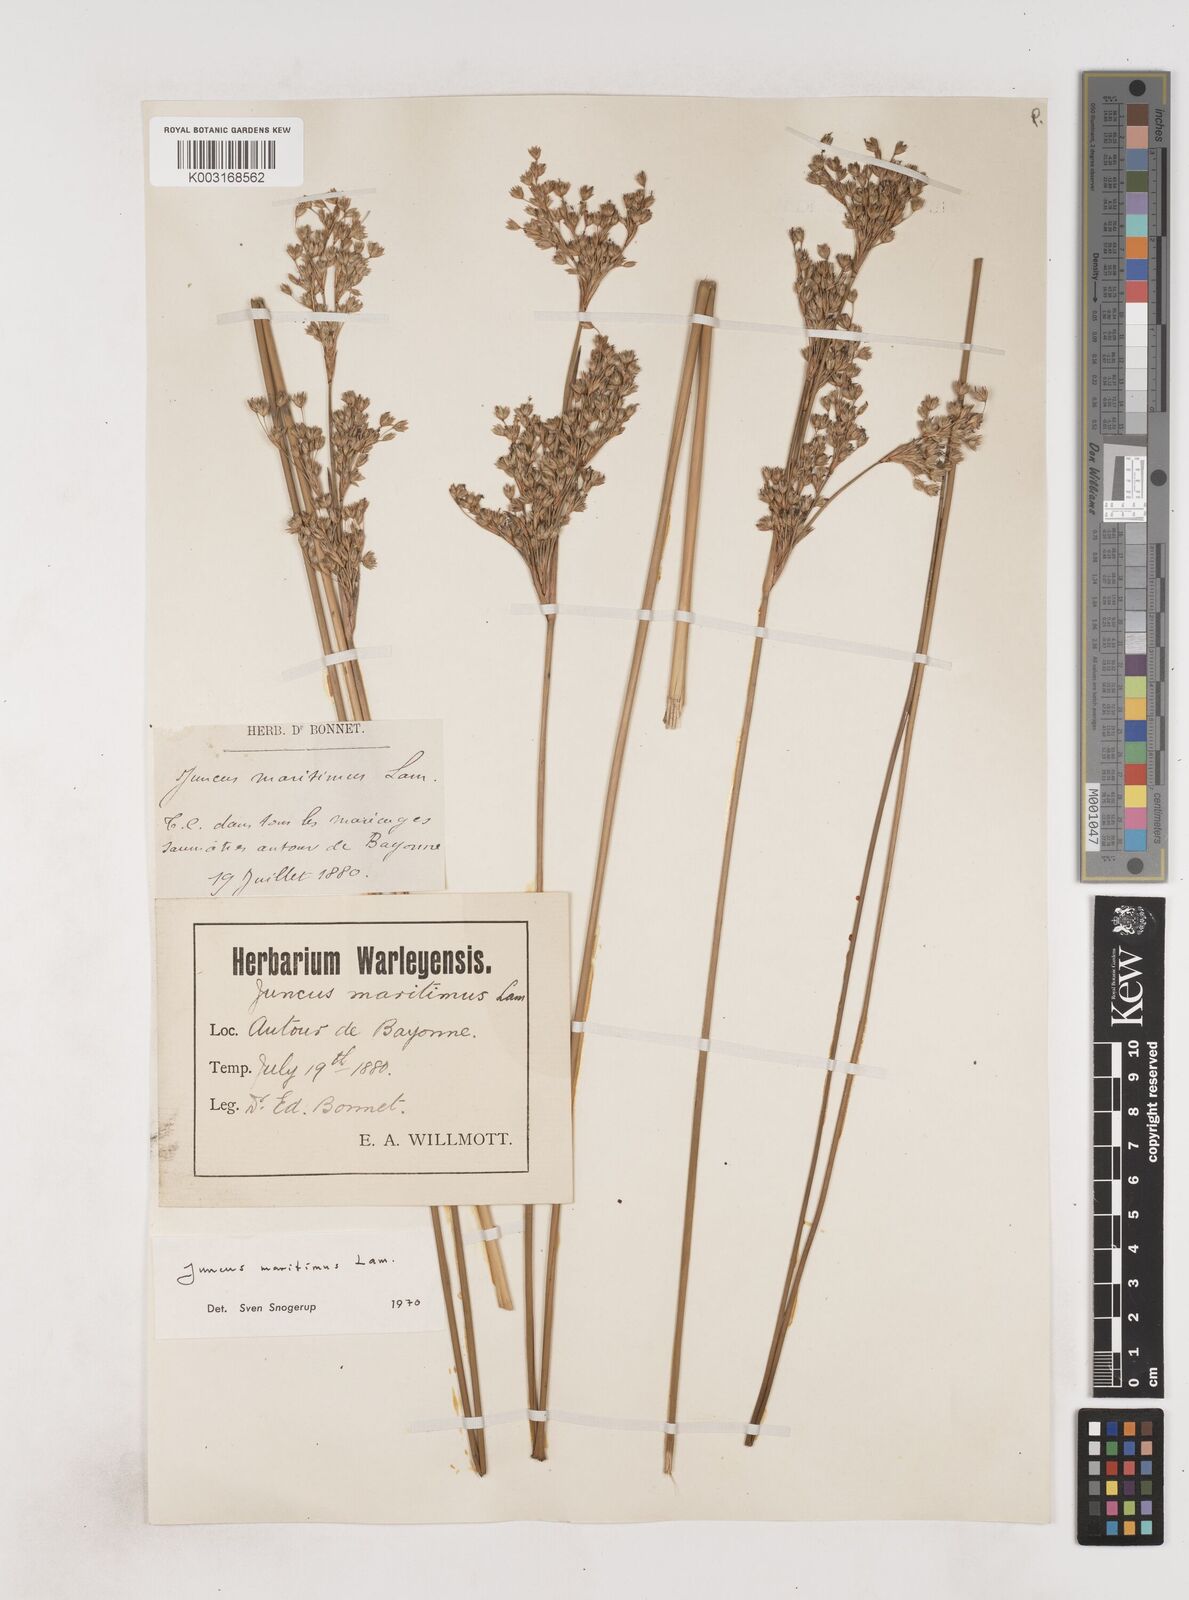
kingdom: Plantae
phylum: Tracheophyta
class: Liliopsida
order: Poales
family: Juncaceae
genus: Juncus
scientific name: Juncus maritimus
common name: Sea rush
